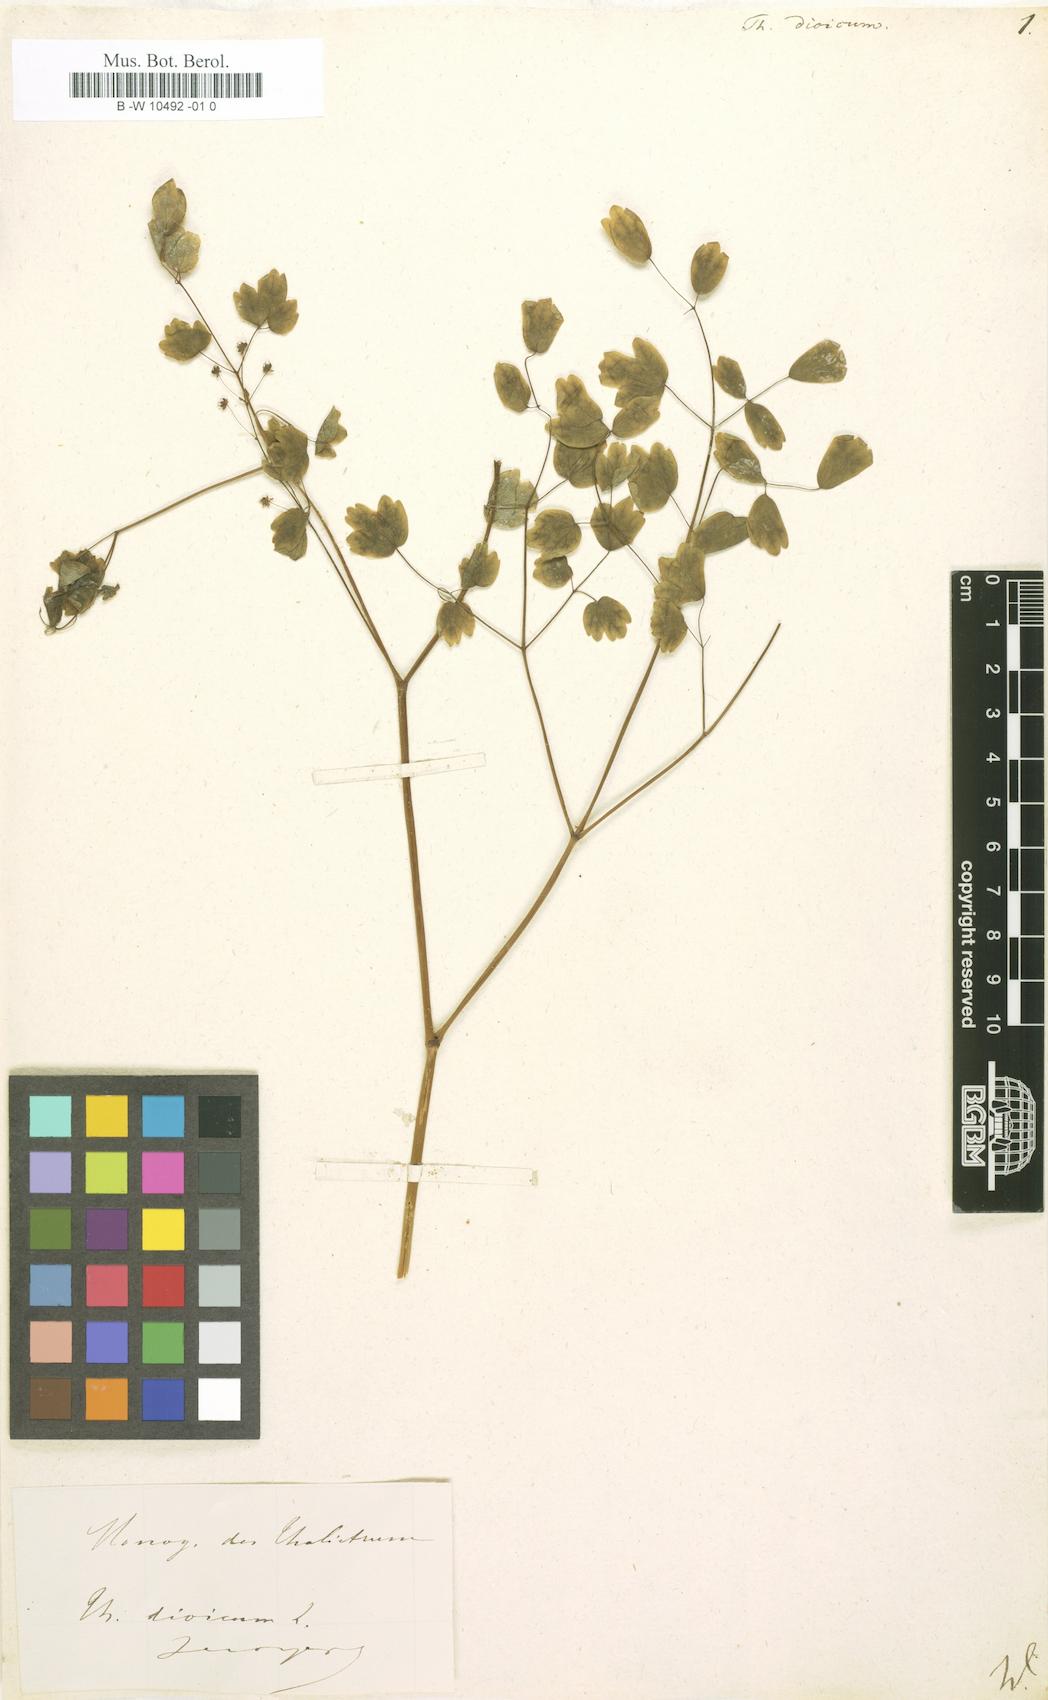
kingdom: Plantae
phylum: Tracheophyta
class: Magnoliopsida
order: Ranunculales
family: Ranunculaceae
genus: Thalictrum
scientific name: Thalictrum dioicum
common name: Early meadow-rue
